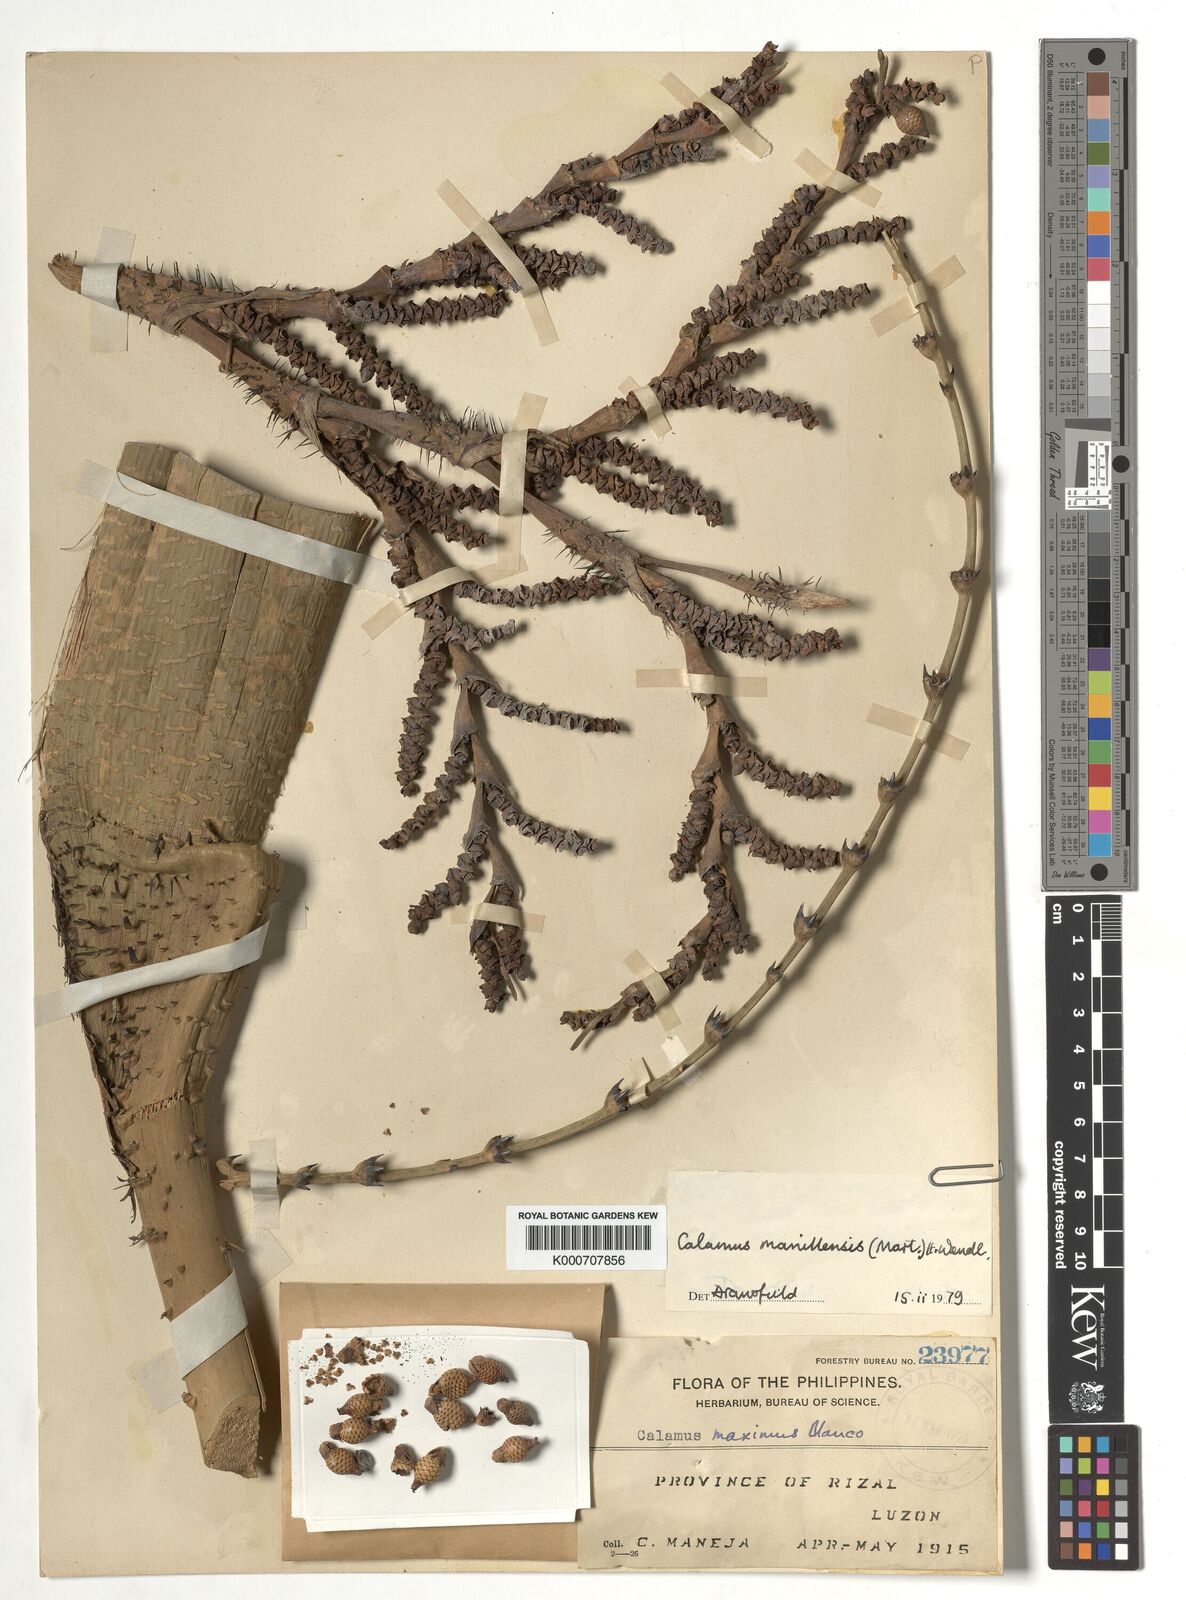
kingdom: Plantae
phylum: Tracheophyta
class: Liliopsida
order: Arecales
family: Arecaceae
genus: Calamus
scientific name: Calamus manillensis
